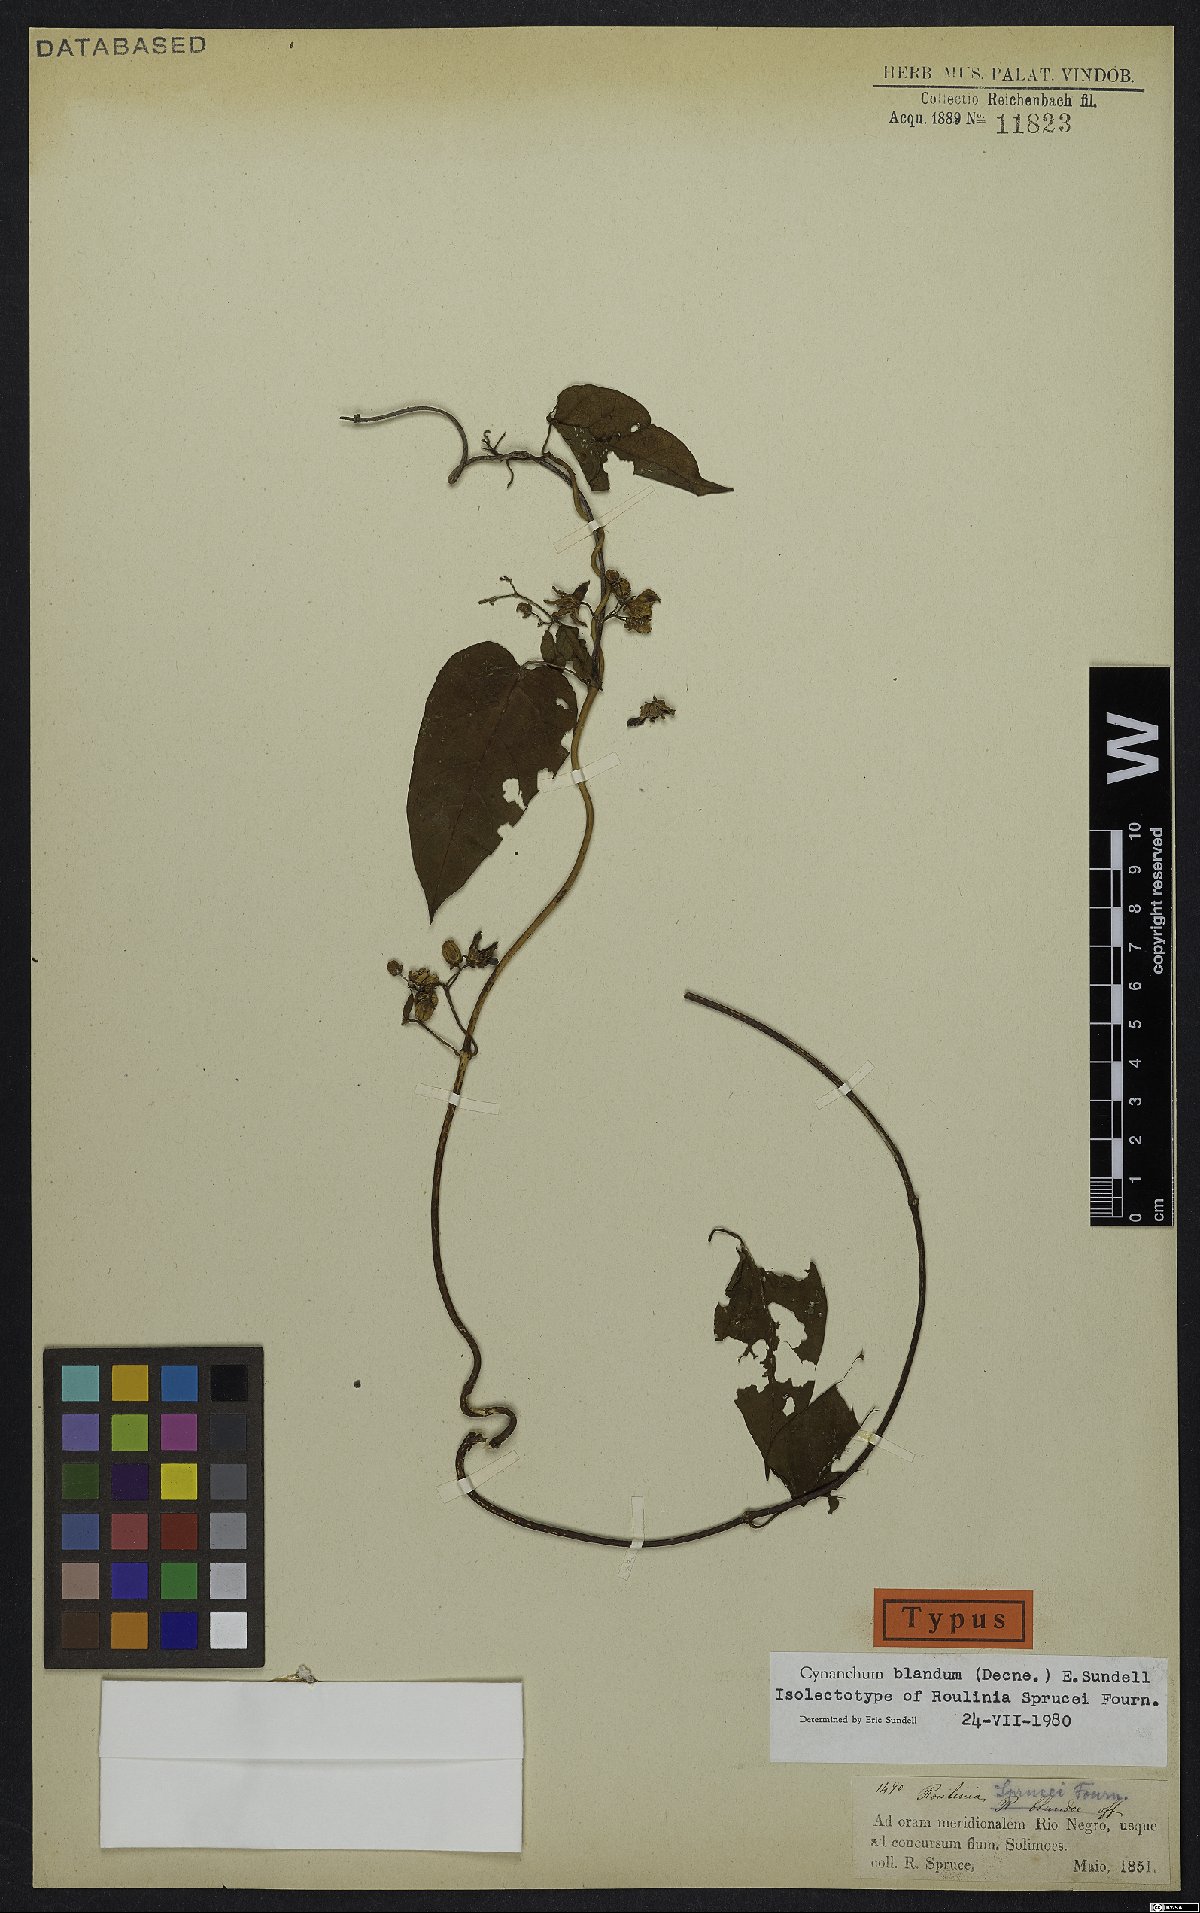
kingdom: Plantae
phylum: Tracheophyta
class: Magnoliopsida
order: Gentianales
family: Apocynaceae
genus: Cynanchum
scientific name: Cynanchum blandum
